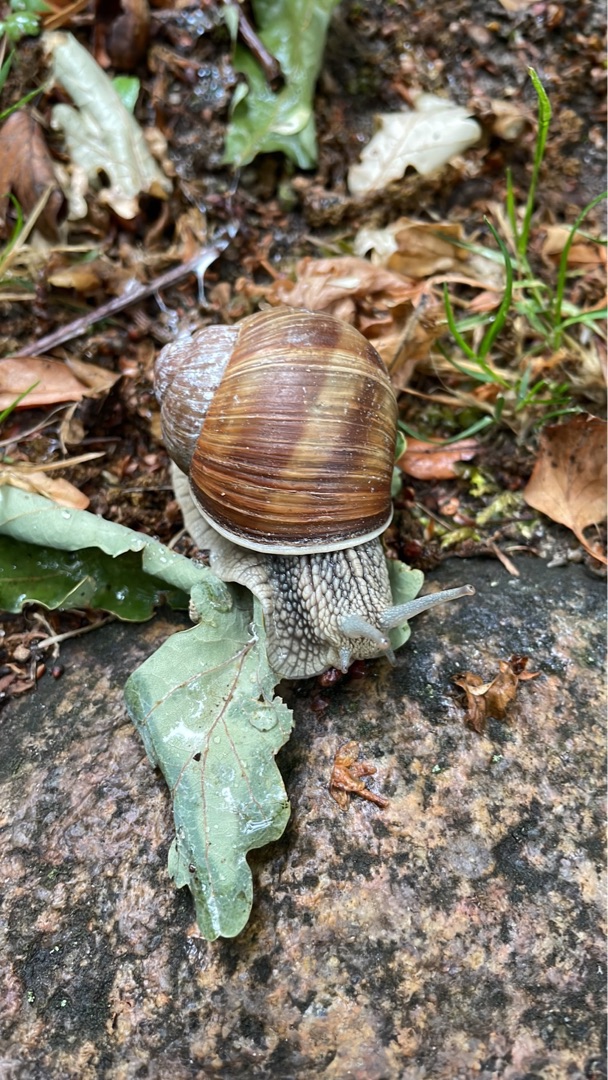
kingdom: Animalia
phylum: Mollusca
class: Gastropoda
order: Stylommatophora
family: Helicidae
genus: Helix
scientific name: Helix pomatia
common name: Vinbjergsnegl
